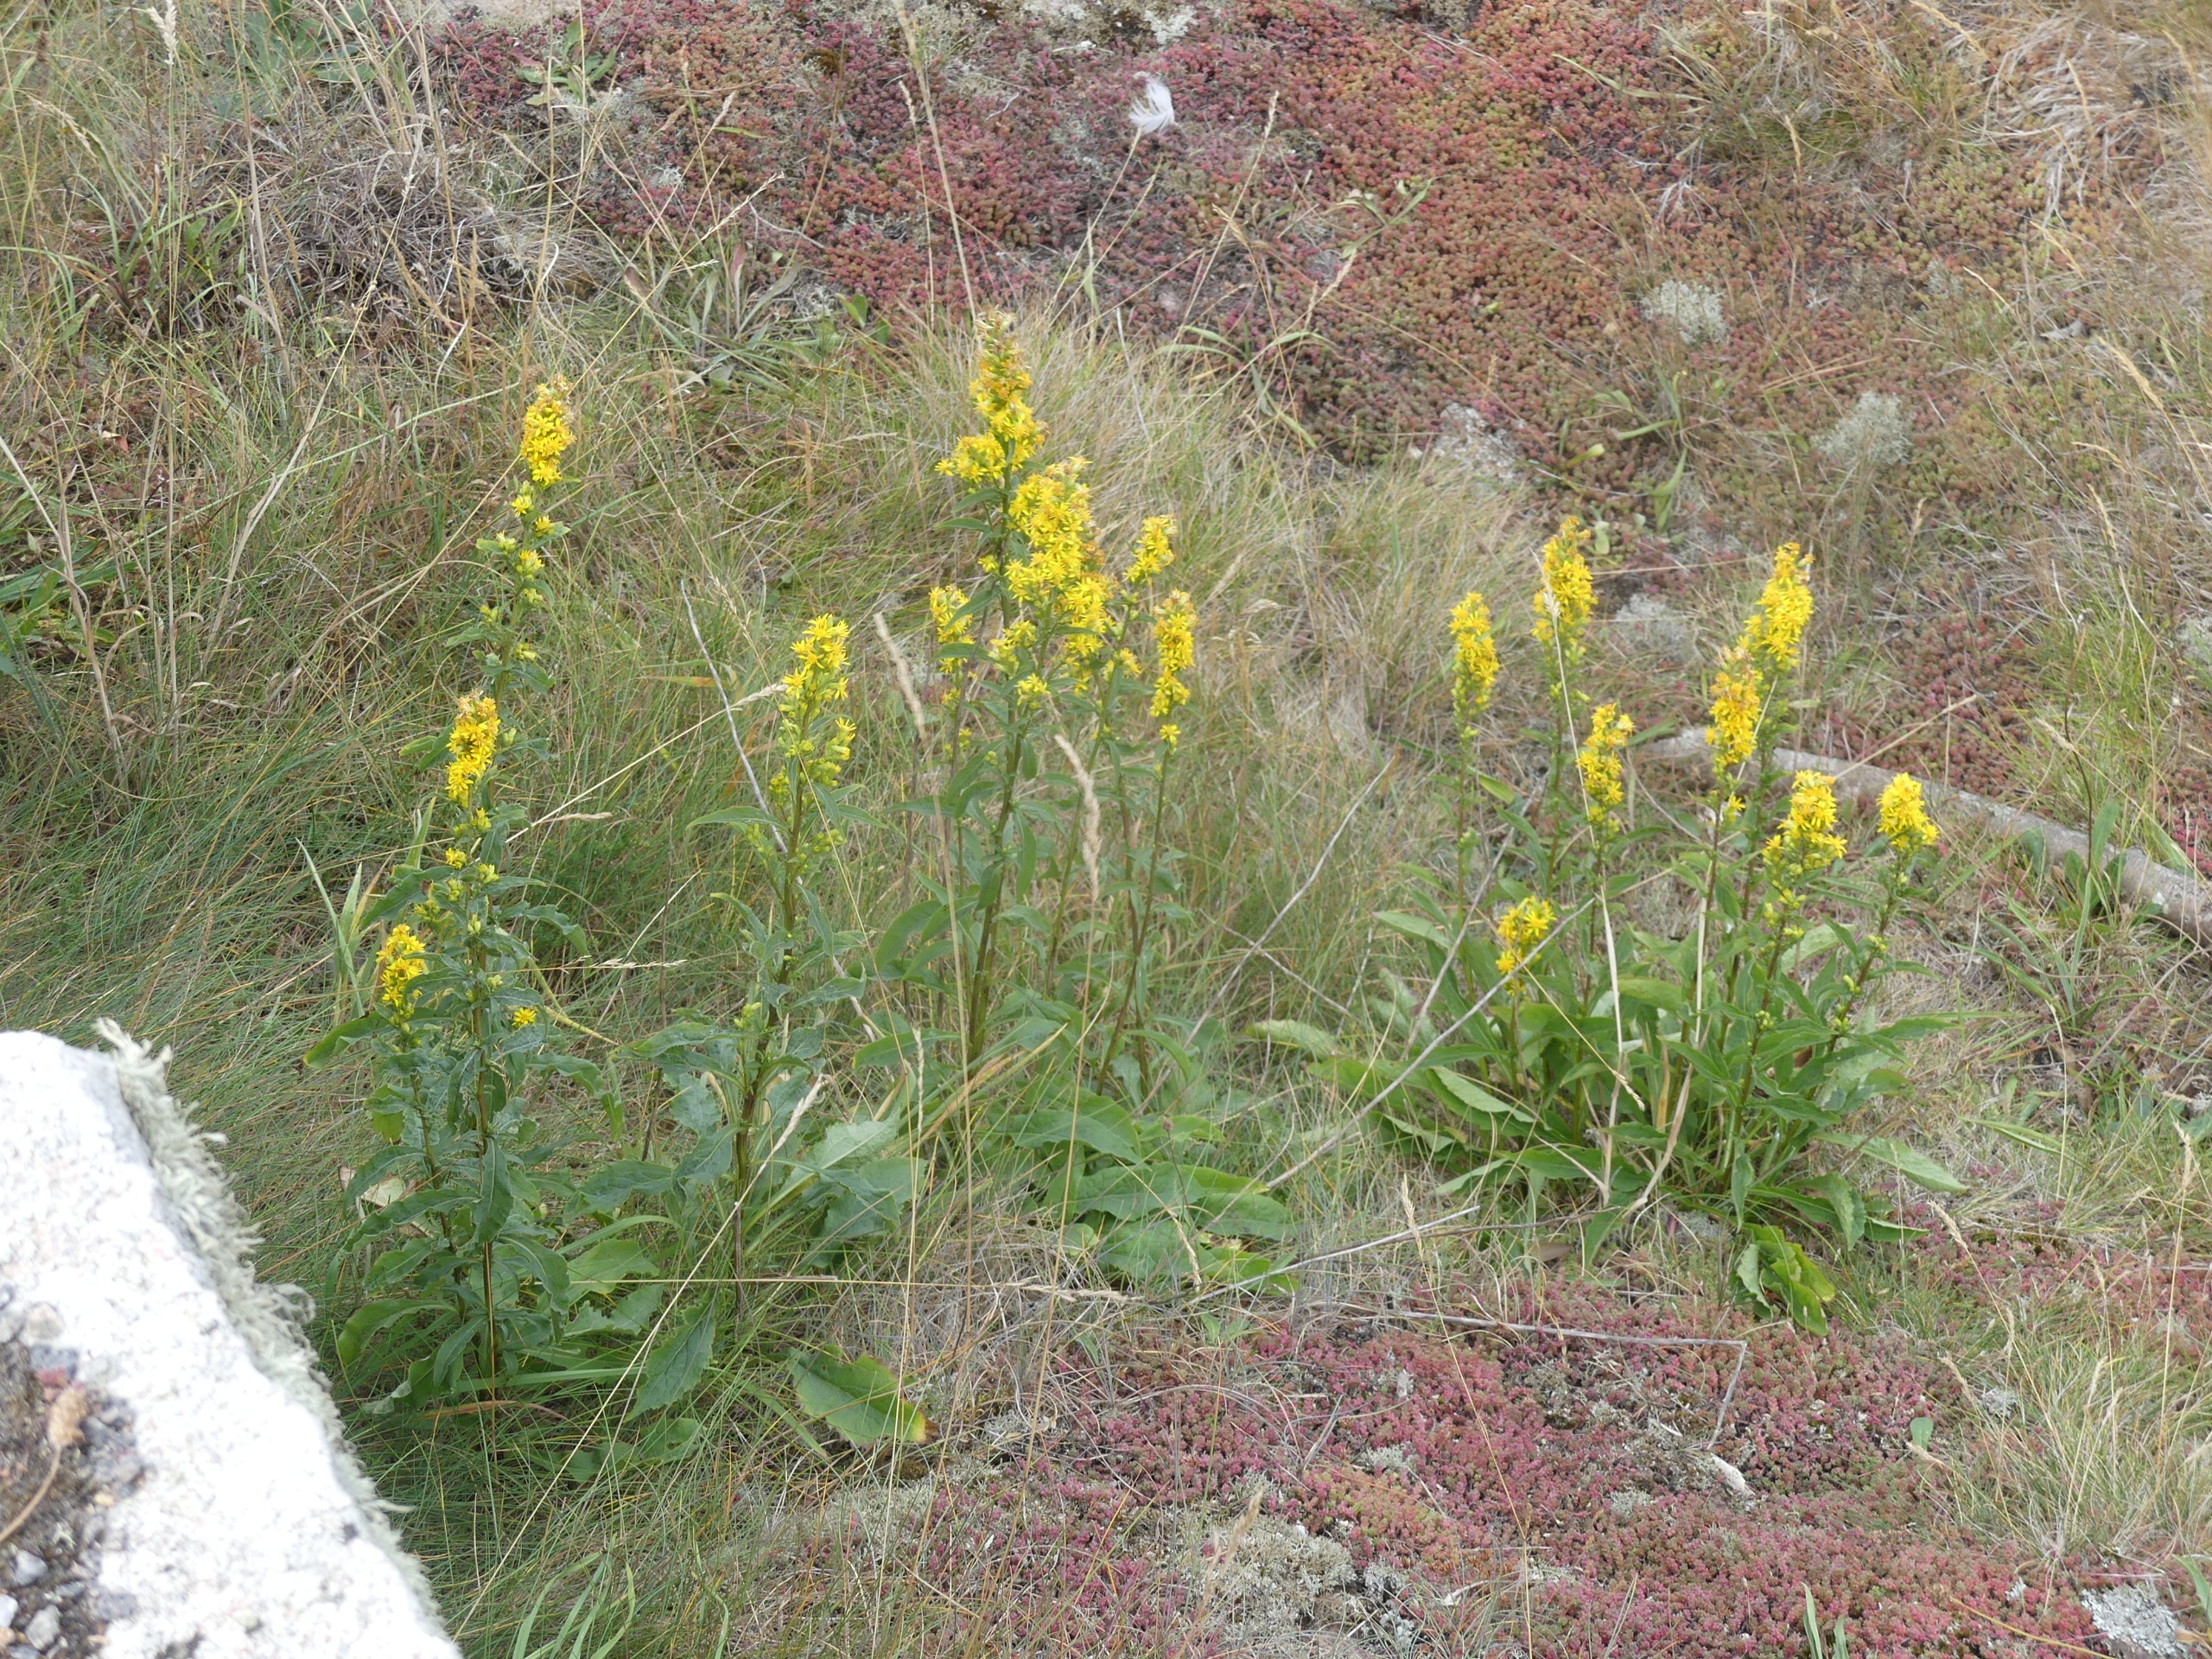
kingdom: Plantae
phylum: Tracheophyta
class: Magnoliopsida
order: Asterales
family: Asteraceae
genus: Solidago
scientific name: Solidago virgaurea
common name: Almindelig gyldenris
